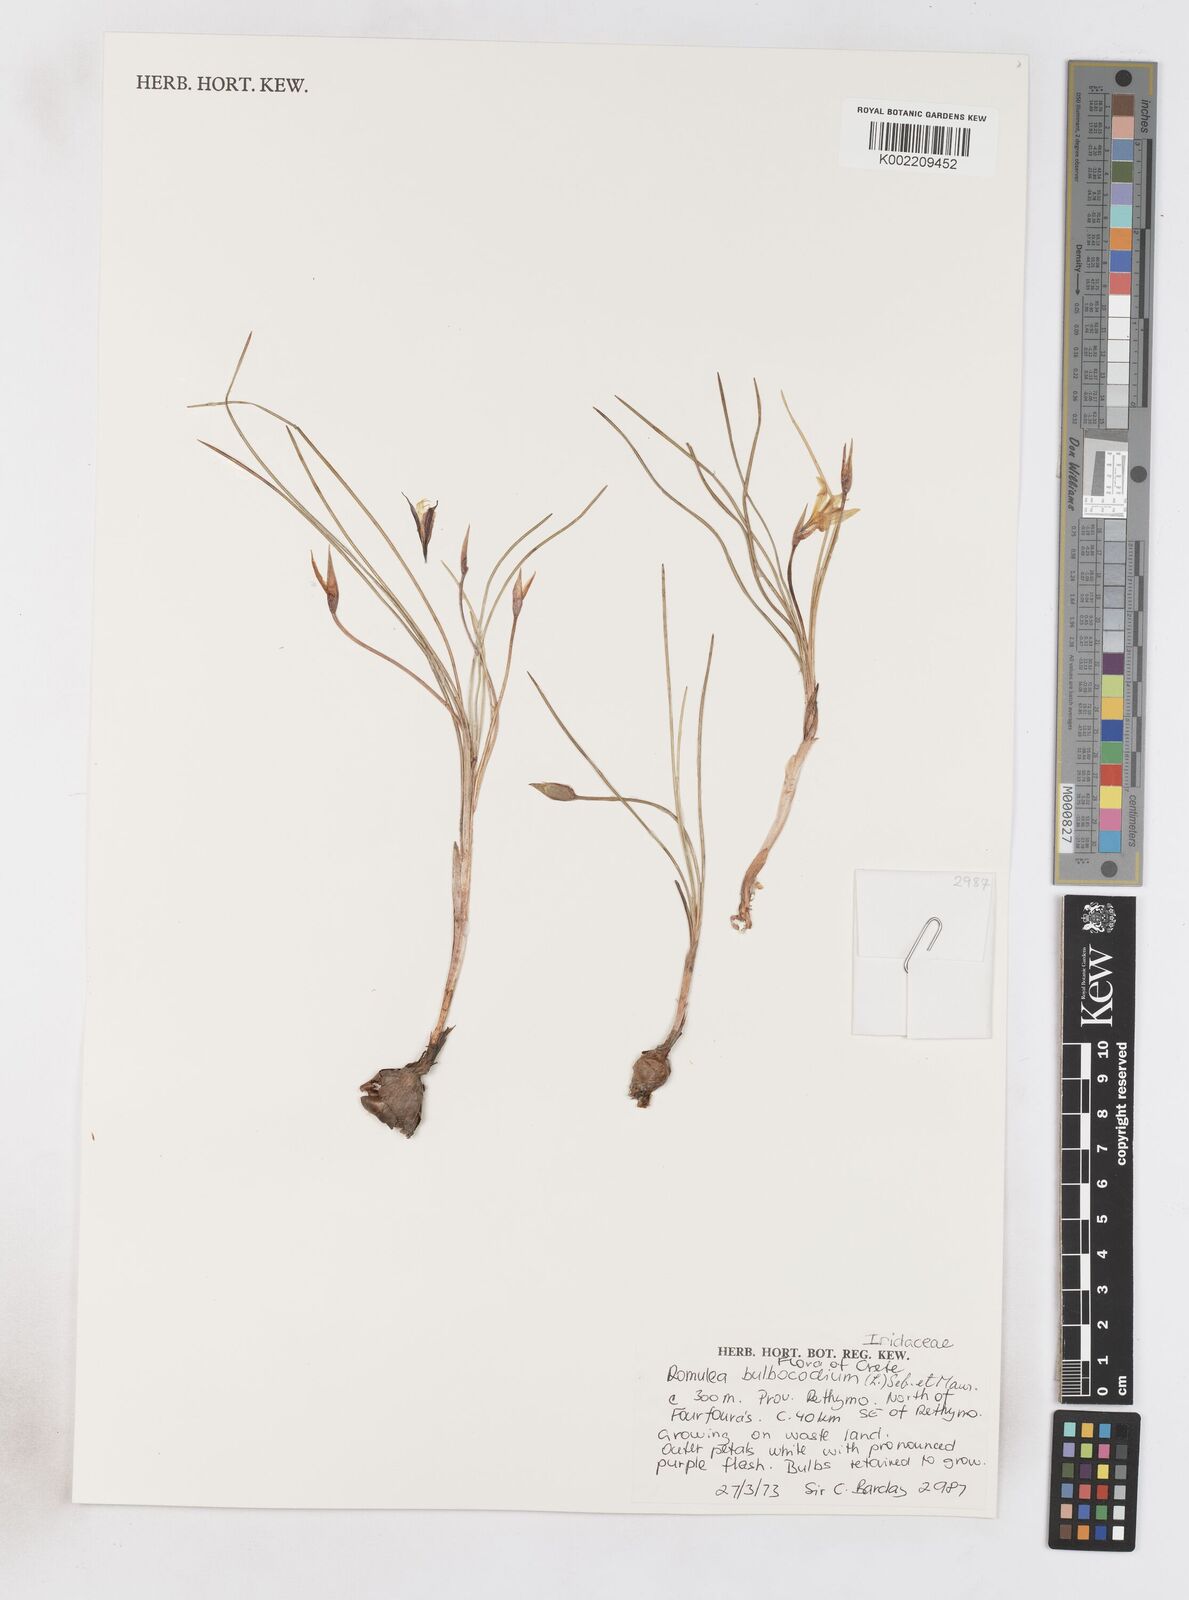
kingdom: Plantae
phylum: Tracheophyta
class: Liliopsida
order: Asparagales
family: Iridaceae
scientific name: Iridaceae
